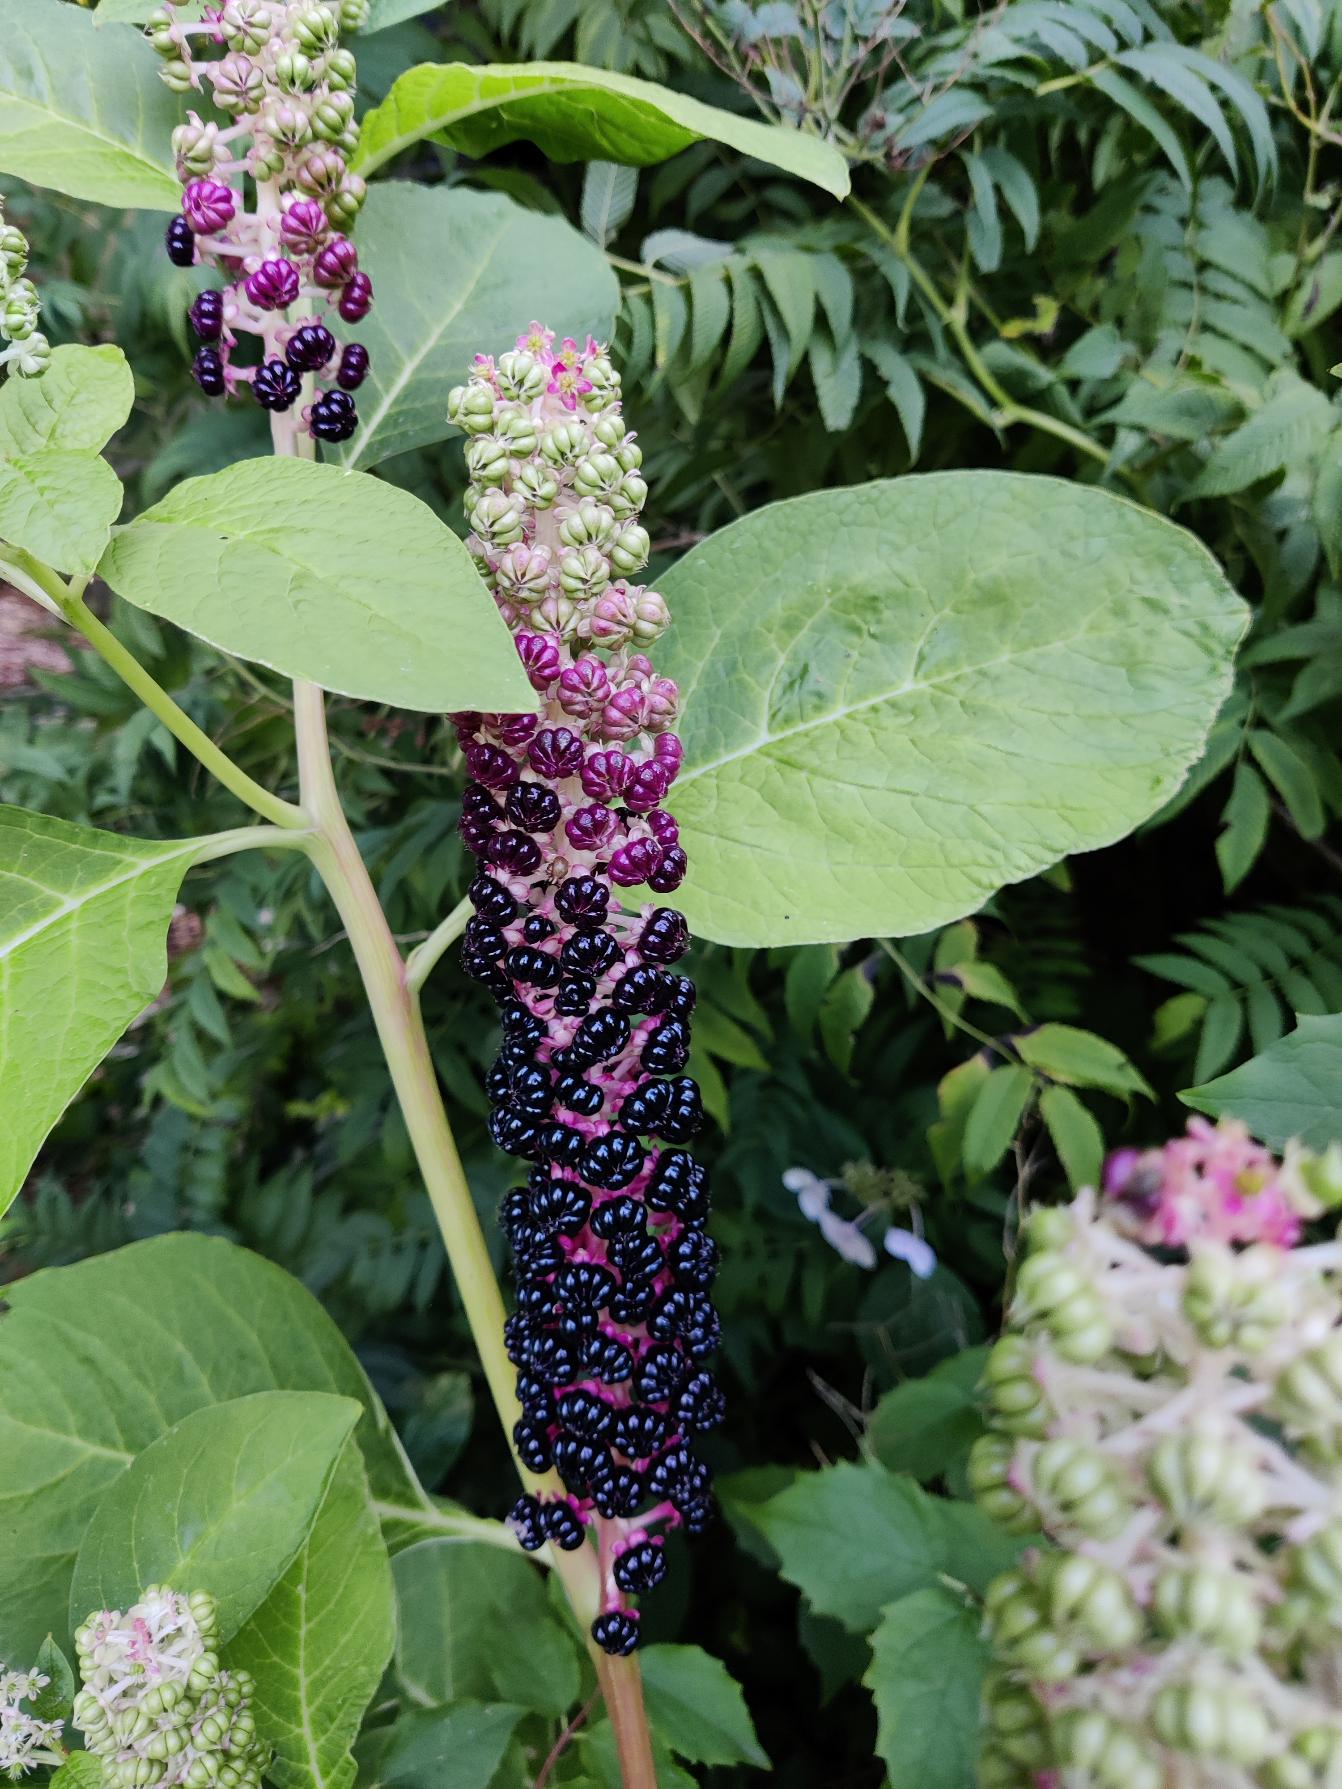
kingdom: Plantae
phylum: Tracheophyta
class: Magnoliopsida
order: Caryophyllales
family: Phytolaccaceae
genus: Phytolacca
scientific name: Phytolacca acinosa
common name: Asiatisk kermesbær
